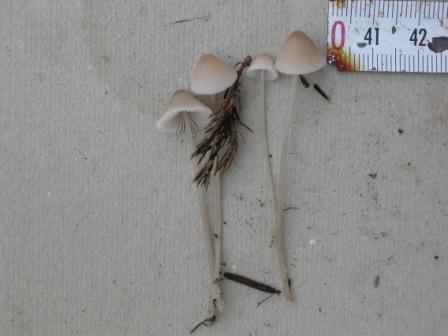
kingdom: Fungi
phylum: Basidiomycota
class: Agaricomycetes
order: Agaricales
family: Mycenaceae
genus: Mycena
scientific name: Mycena filopes
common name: jod-huesvamp
